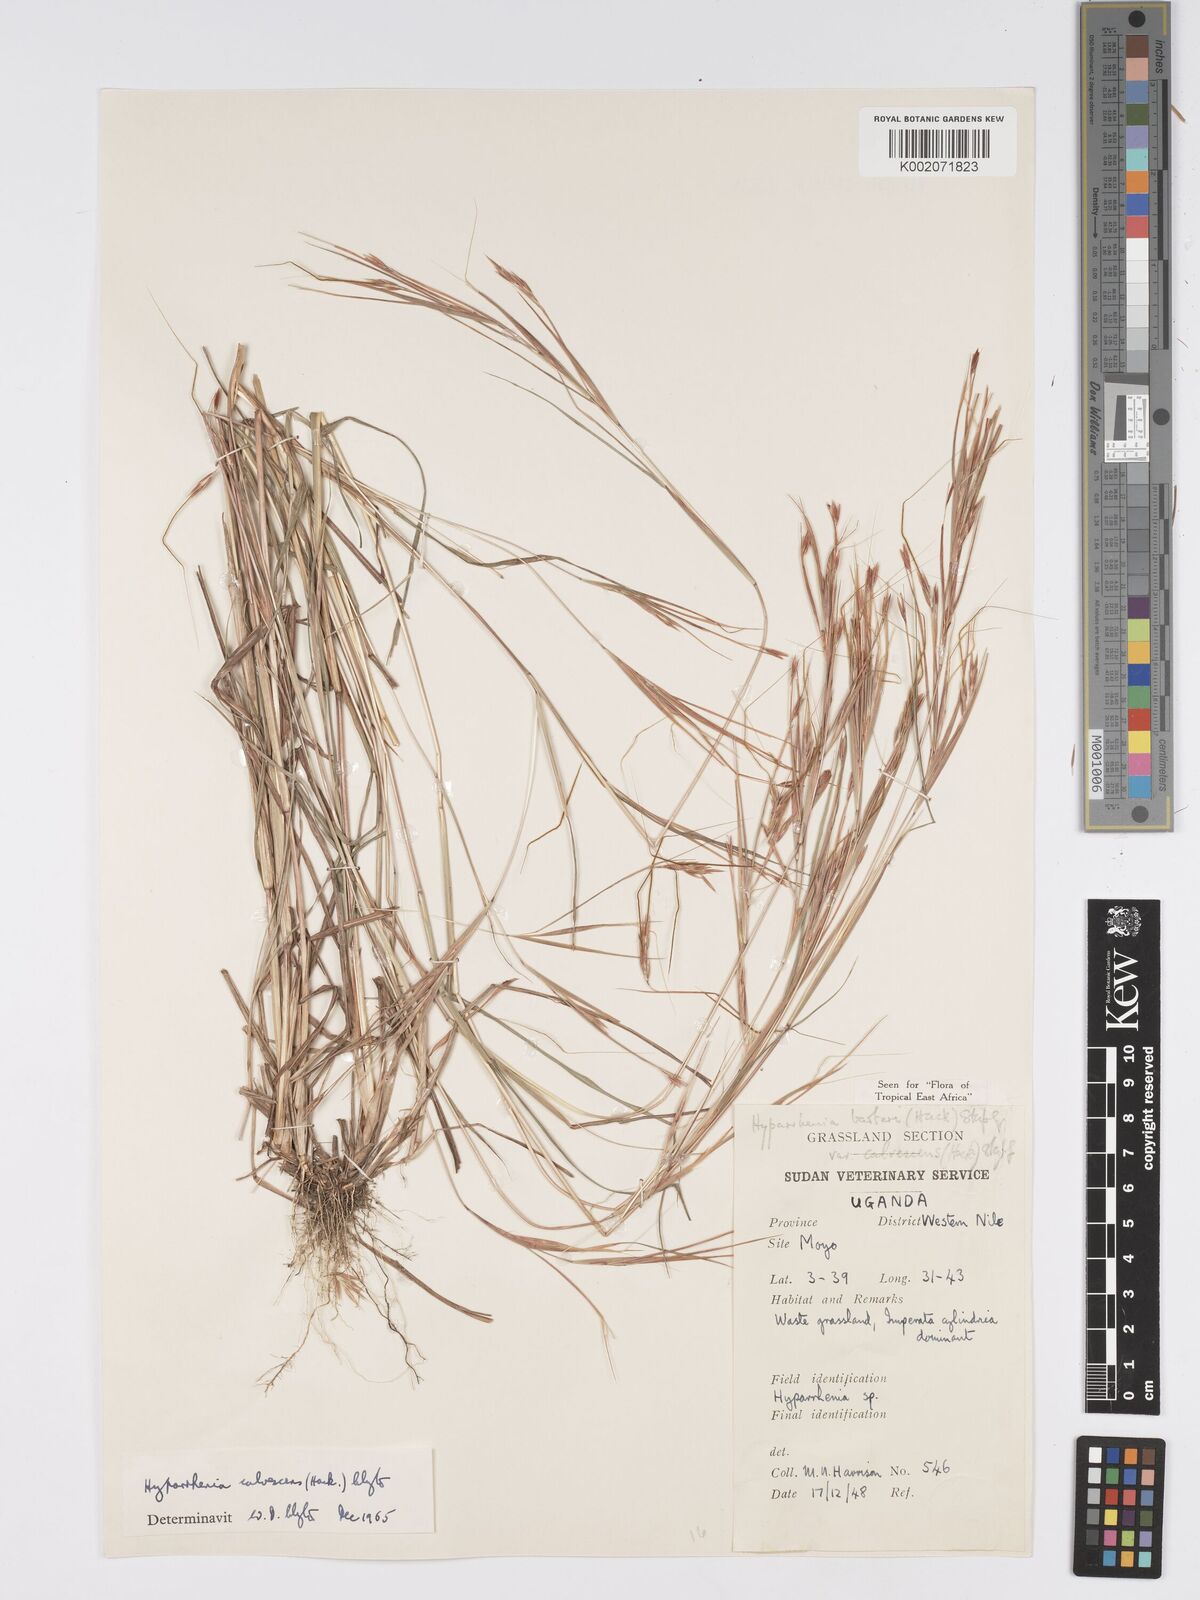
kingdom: Plantae
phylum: Tracheophyta
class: Liliopsida
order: Poales
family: Poaceae
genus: Hyparrhenia
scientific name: Hyparrhenia figariana
